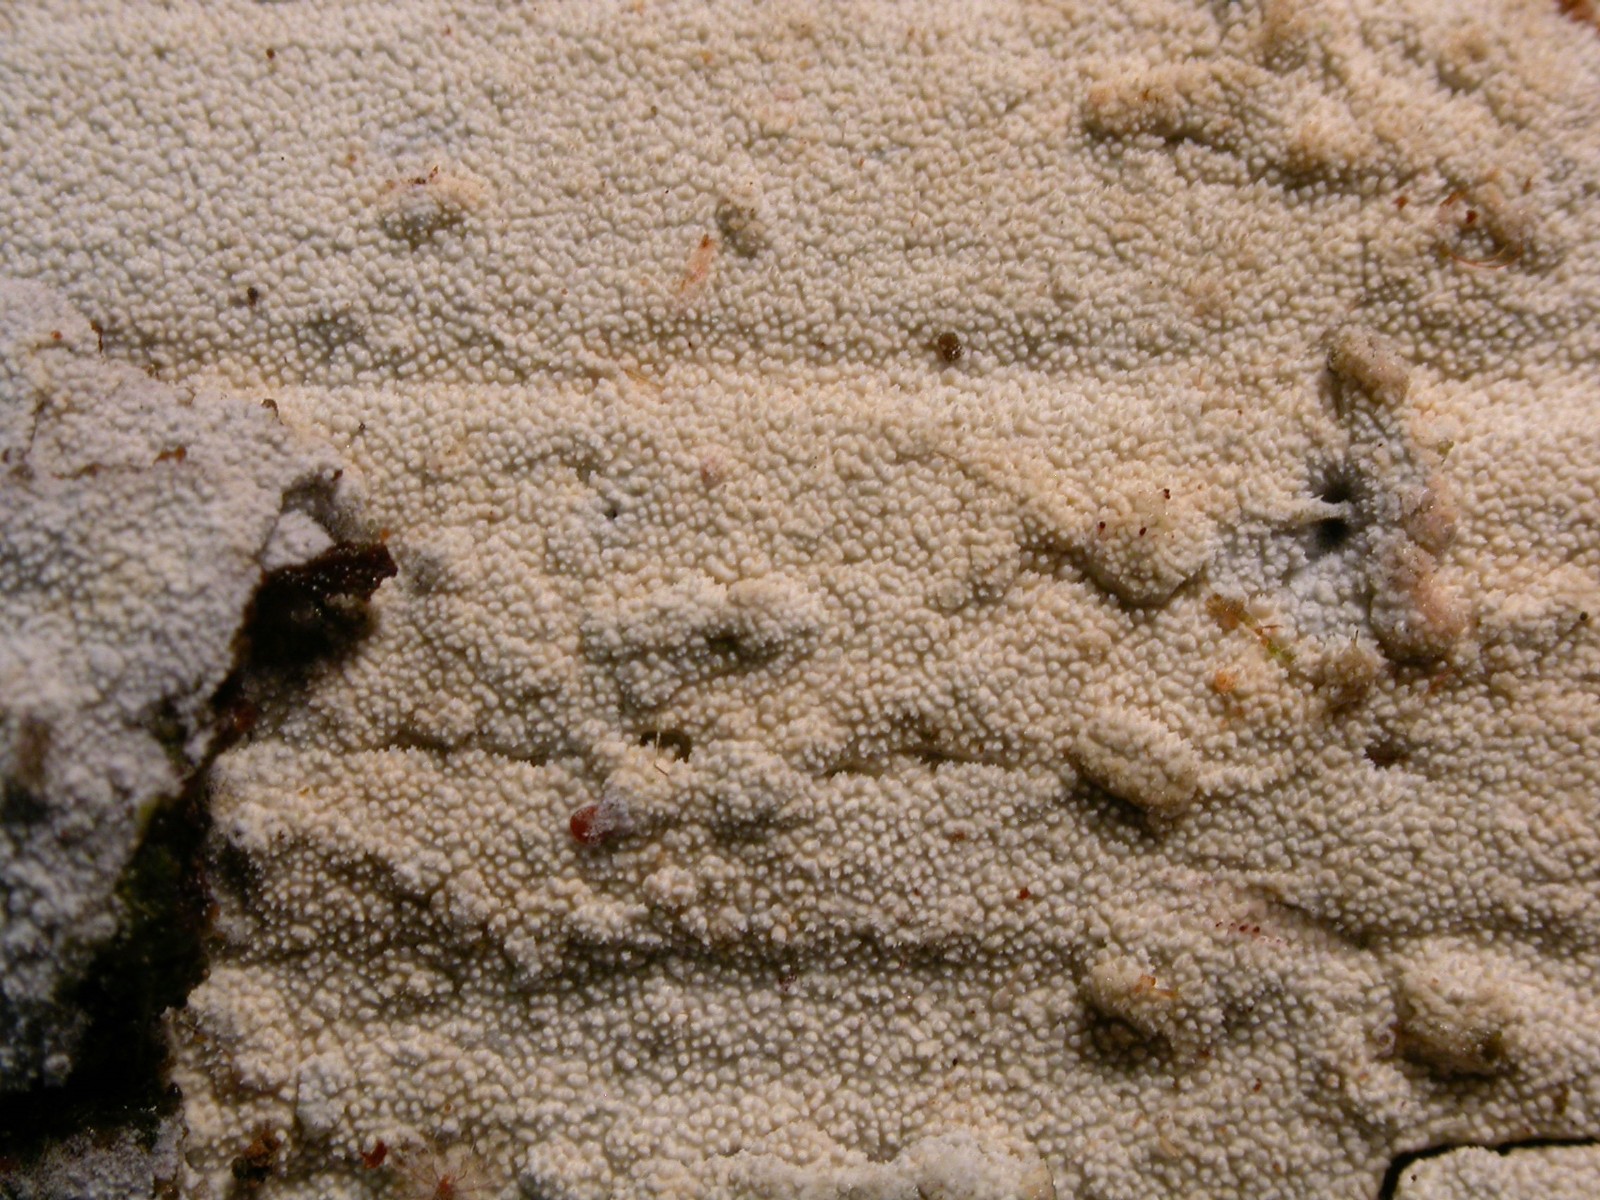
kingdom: Fungi
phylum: Basidiomycota
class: Agaricomycetes
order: Hymenochaetales
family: Schizoporaceae
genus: Xylodon
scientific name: Xylodon brevisetus
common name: tætvortet tandsvamp
